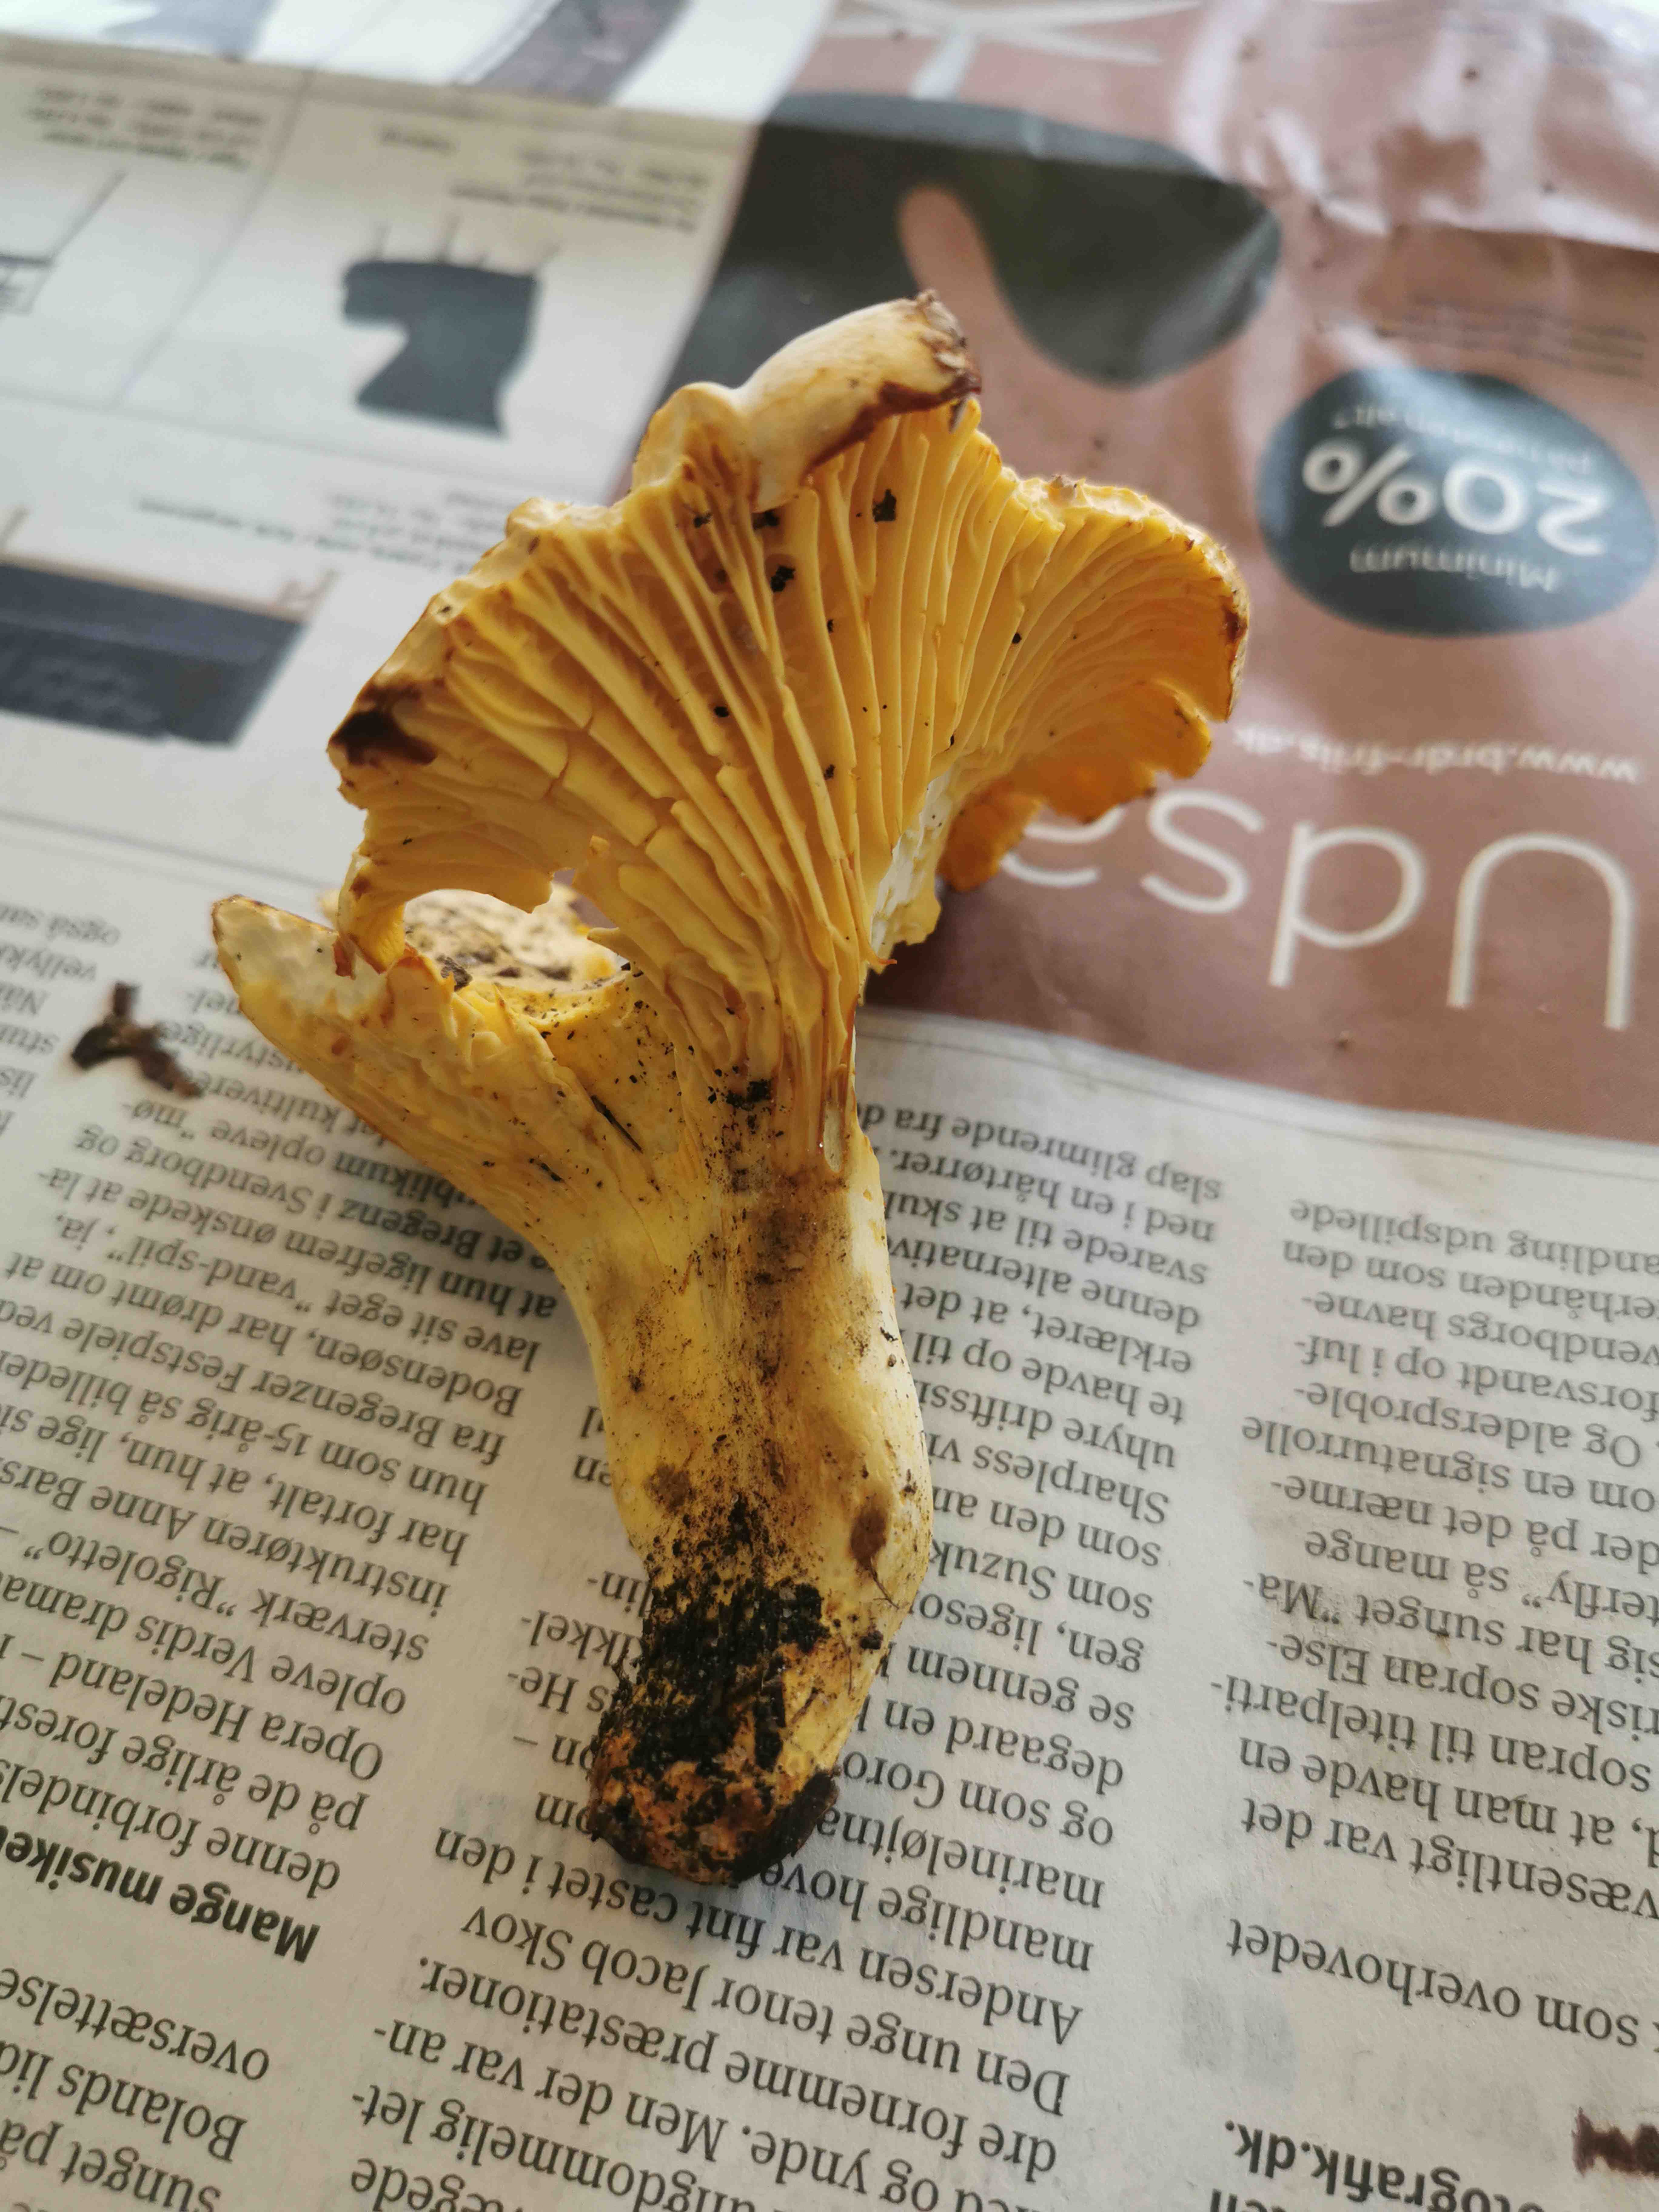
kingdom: Fungi
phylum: Basidiomycota
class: Agaricomycetes
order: Cantharellales
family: Hydnaceae
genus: Cantharellus
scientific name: Cantharellus pallens
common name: bleg kantarel
